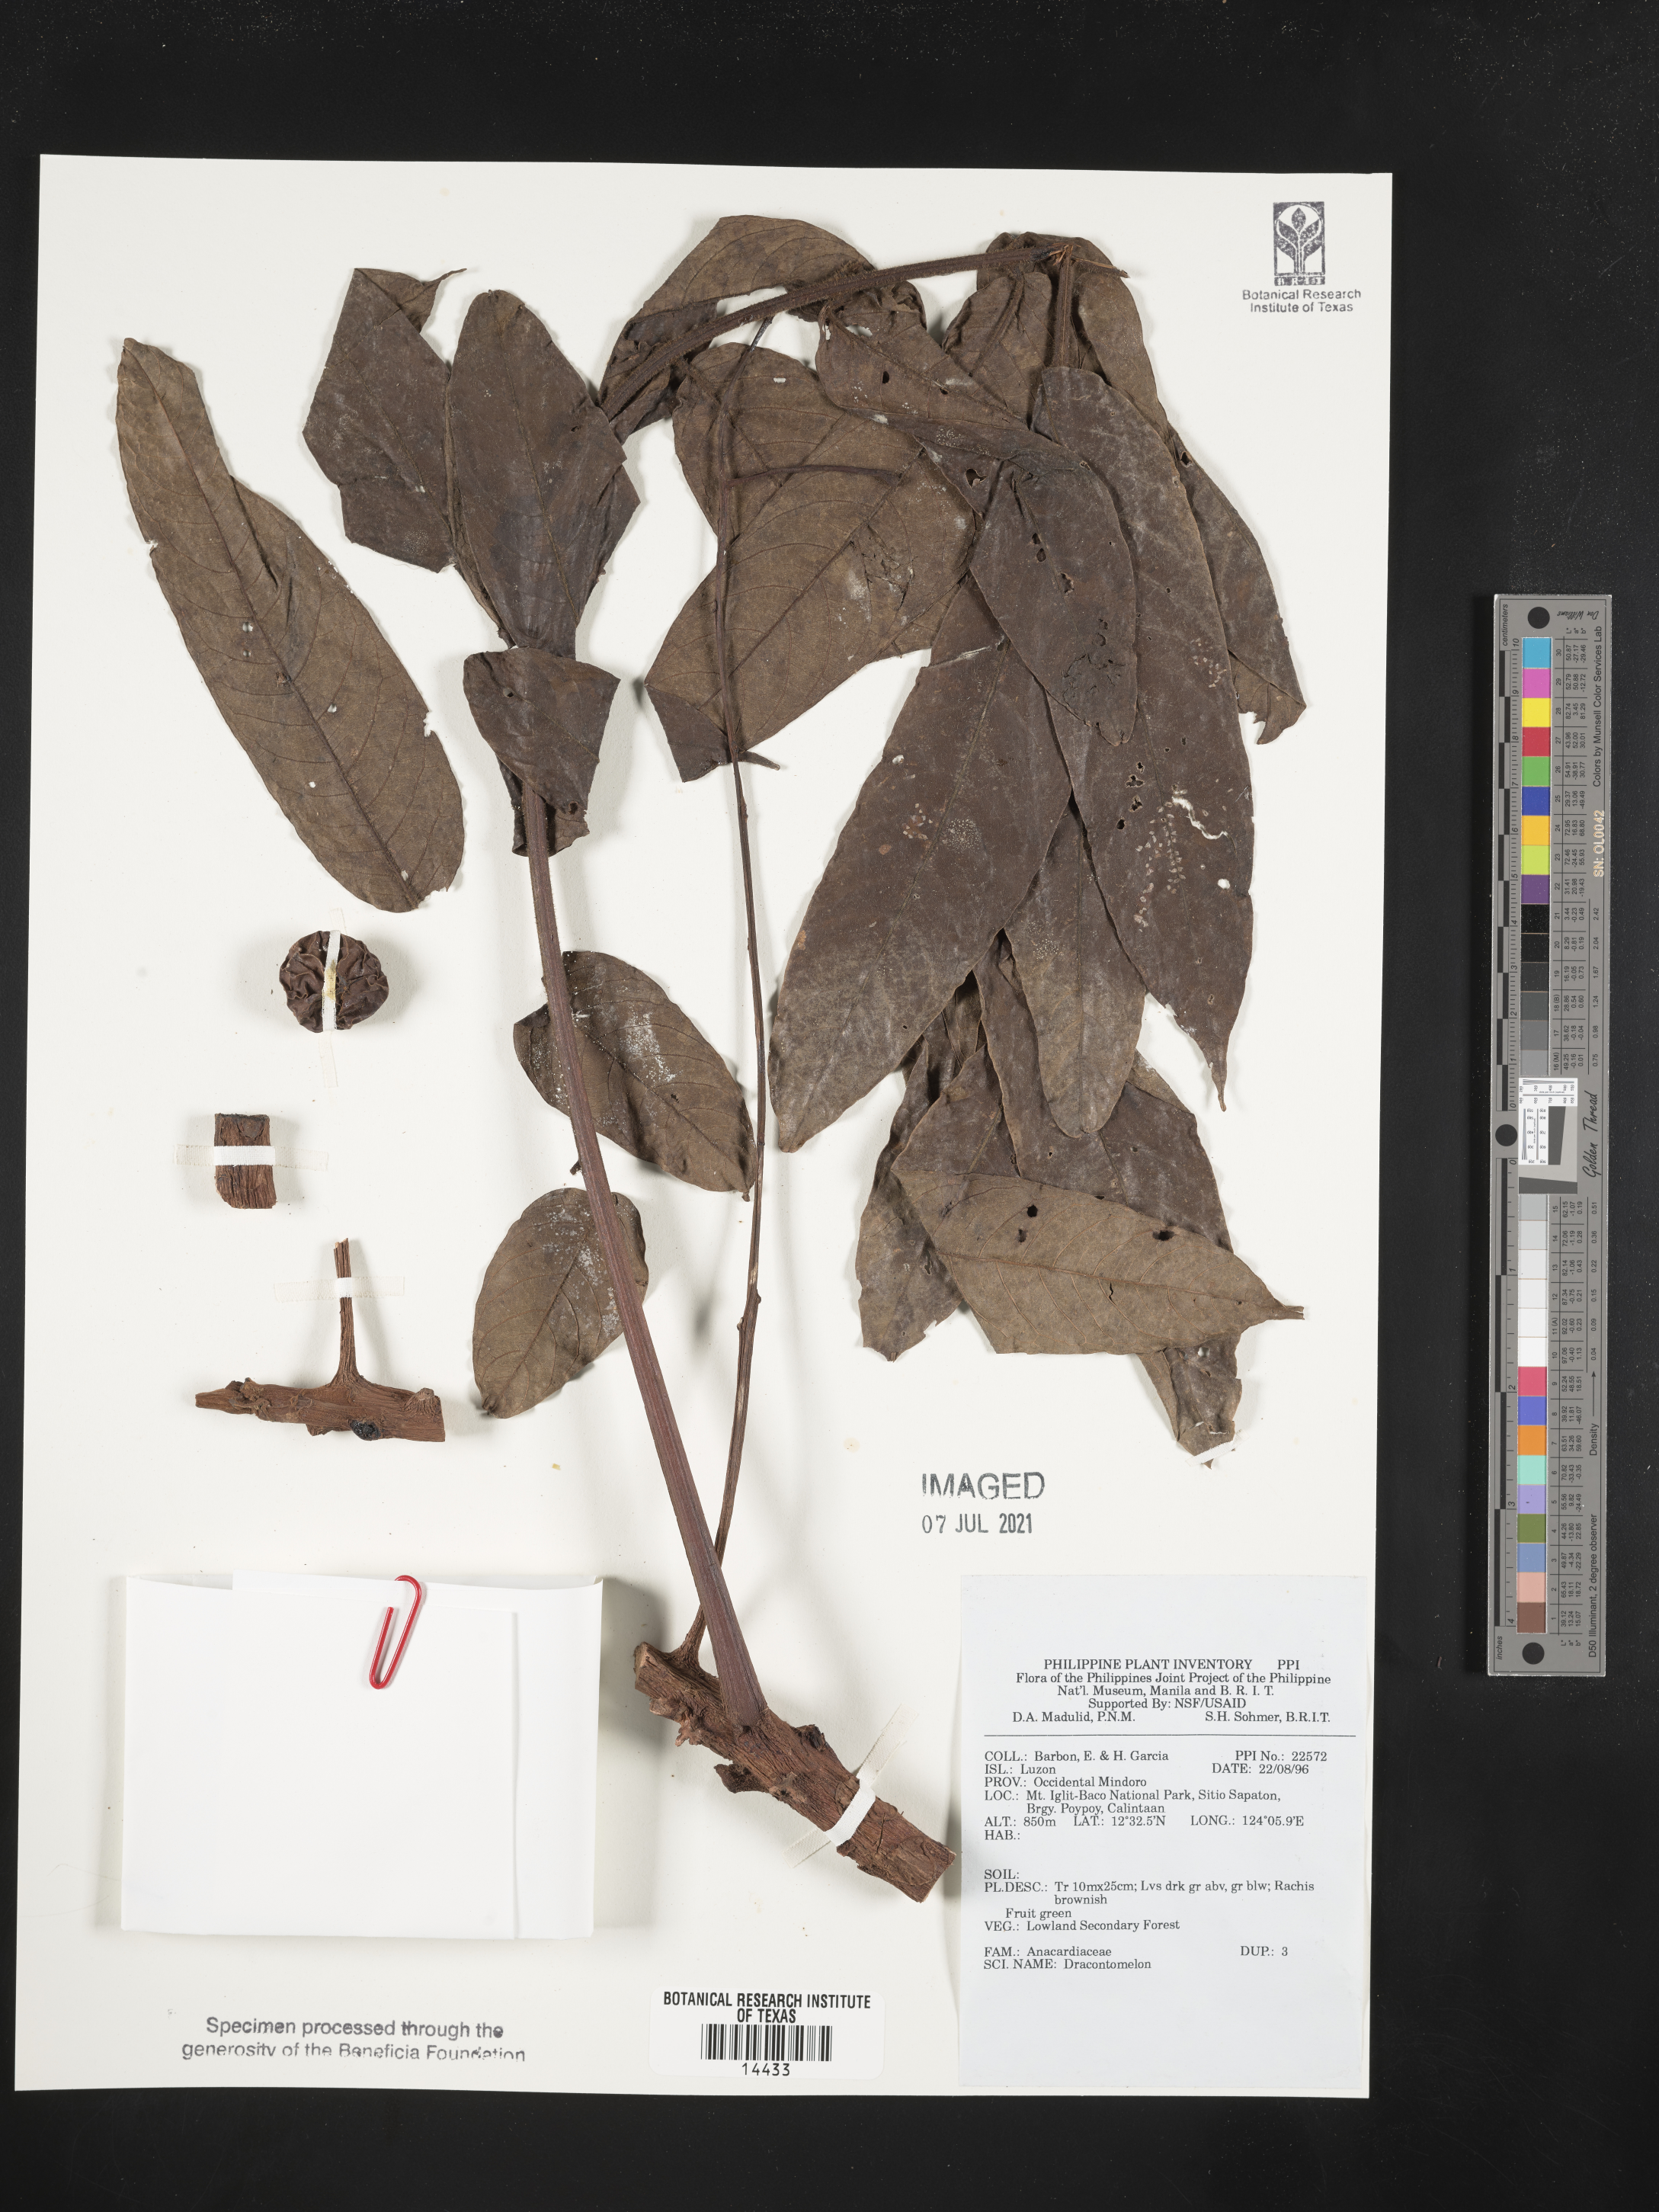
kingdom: Plantae
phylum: Tracheophyta
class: Magnoliopsida
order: Sapindales
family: Anacardiaceae
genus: Dracontomelon
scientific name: Dracontomelon
